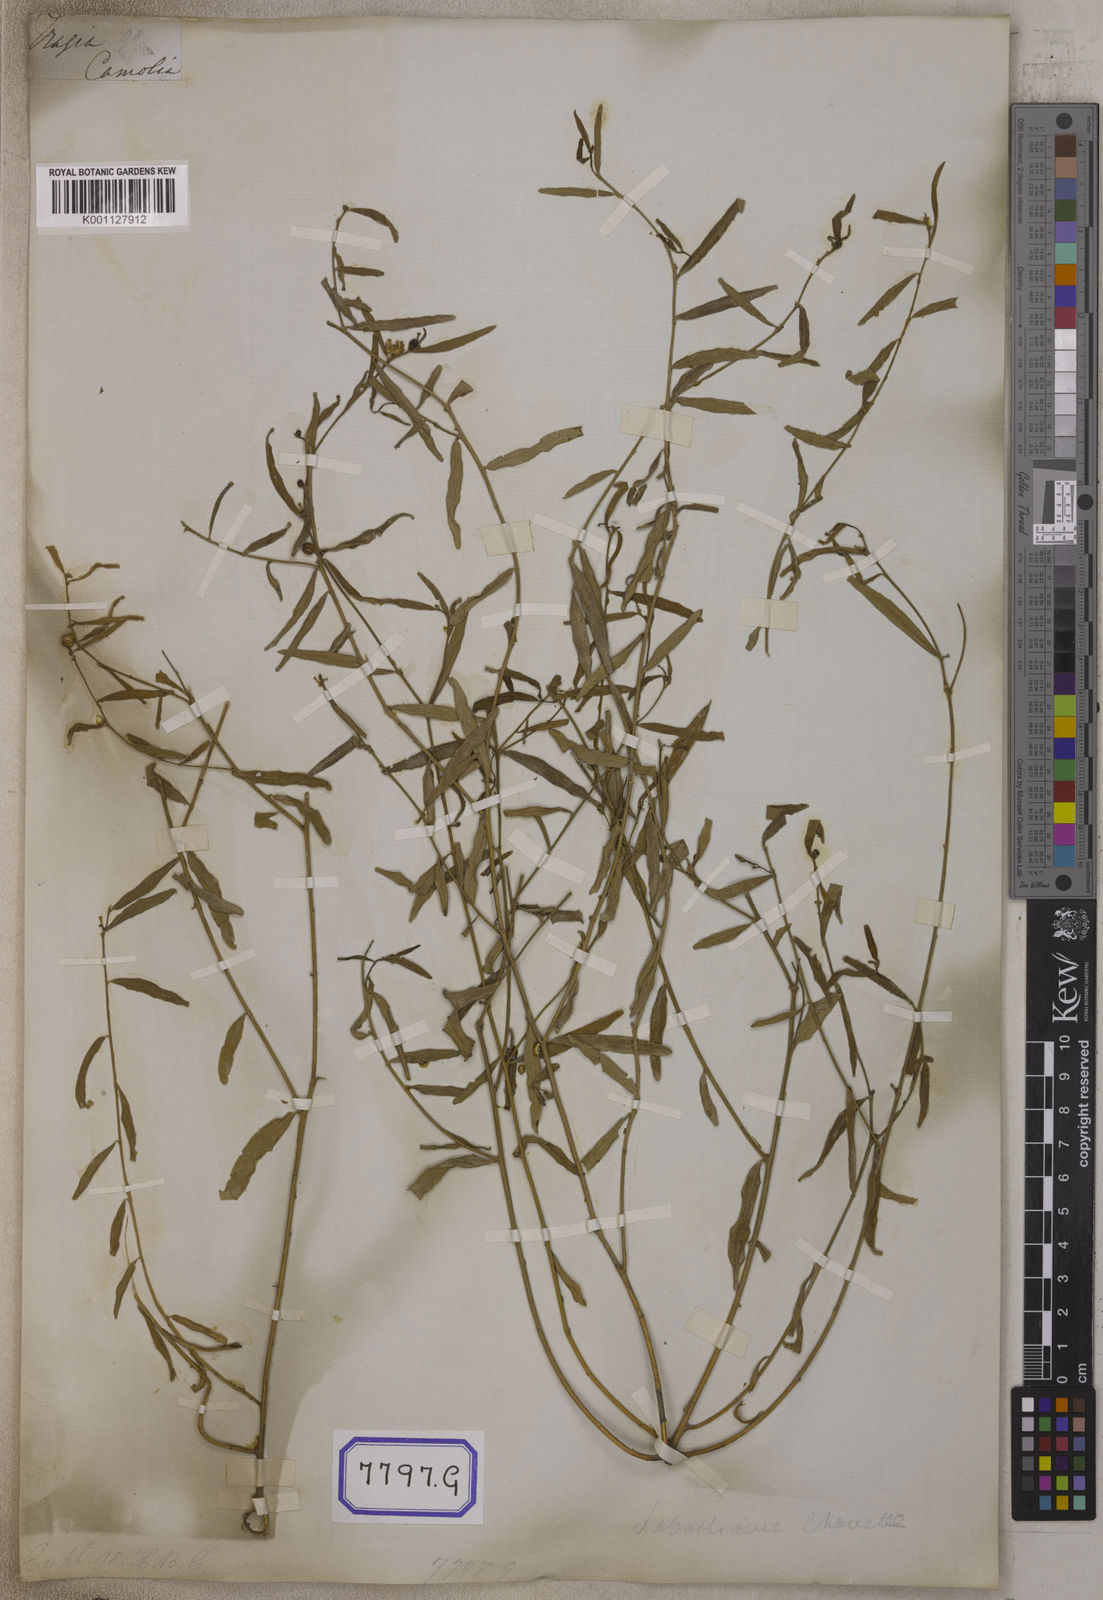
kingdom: Plantae
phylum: Tracheophyta
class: Magnoliopsida
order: Malpighiales
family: Euphorbiaceae
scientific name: Euphorbiaceae
